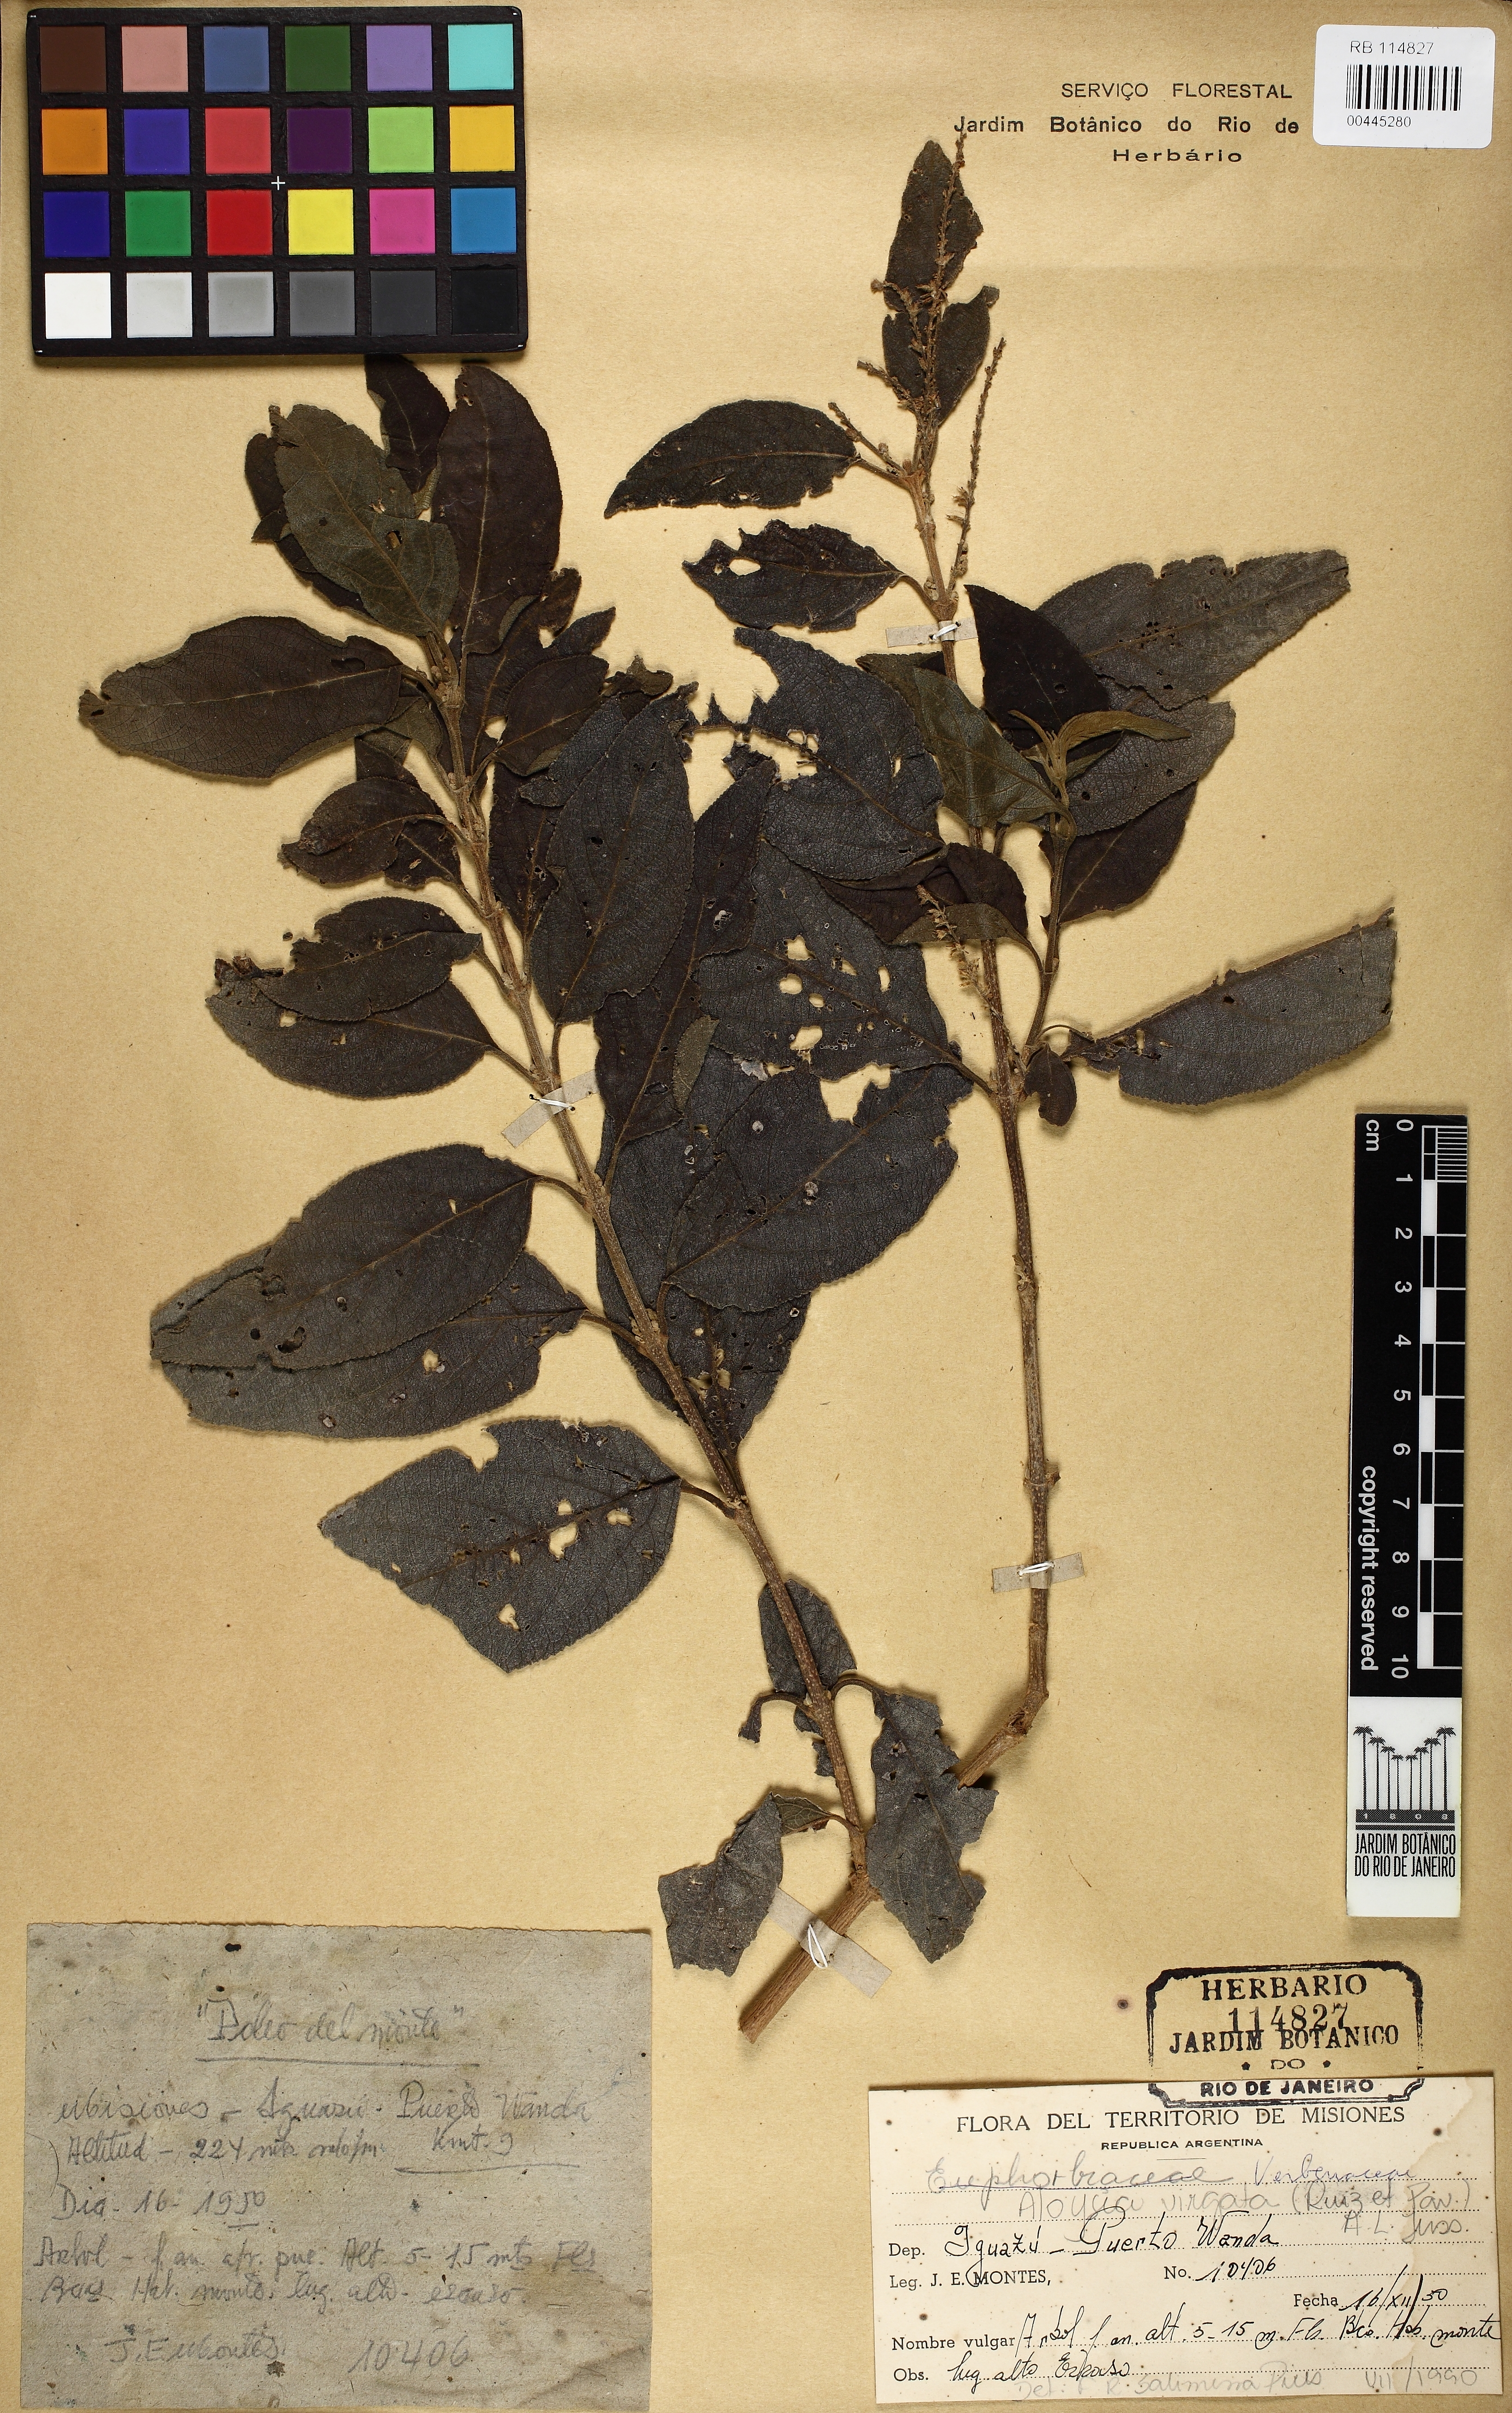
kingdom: Plantae
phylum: Tracheophyta
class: Magnoliopsida
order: Lamiales
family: Verbenaceae
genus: Aloysia
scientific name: Aloysia virgata
